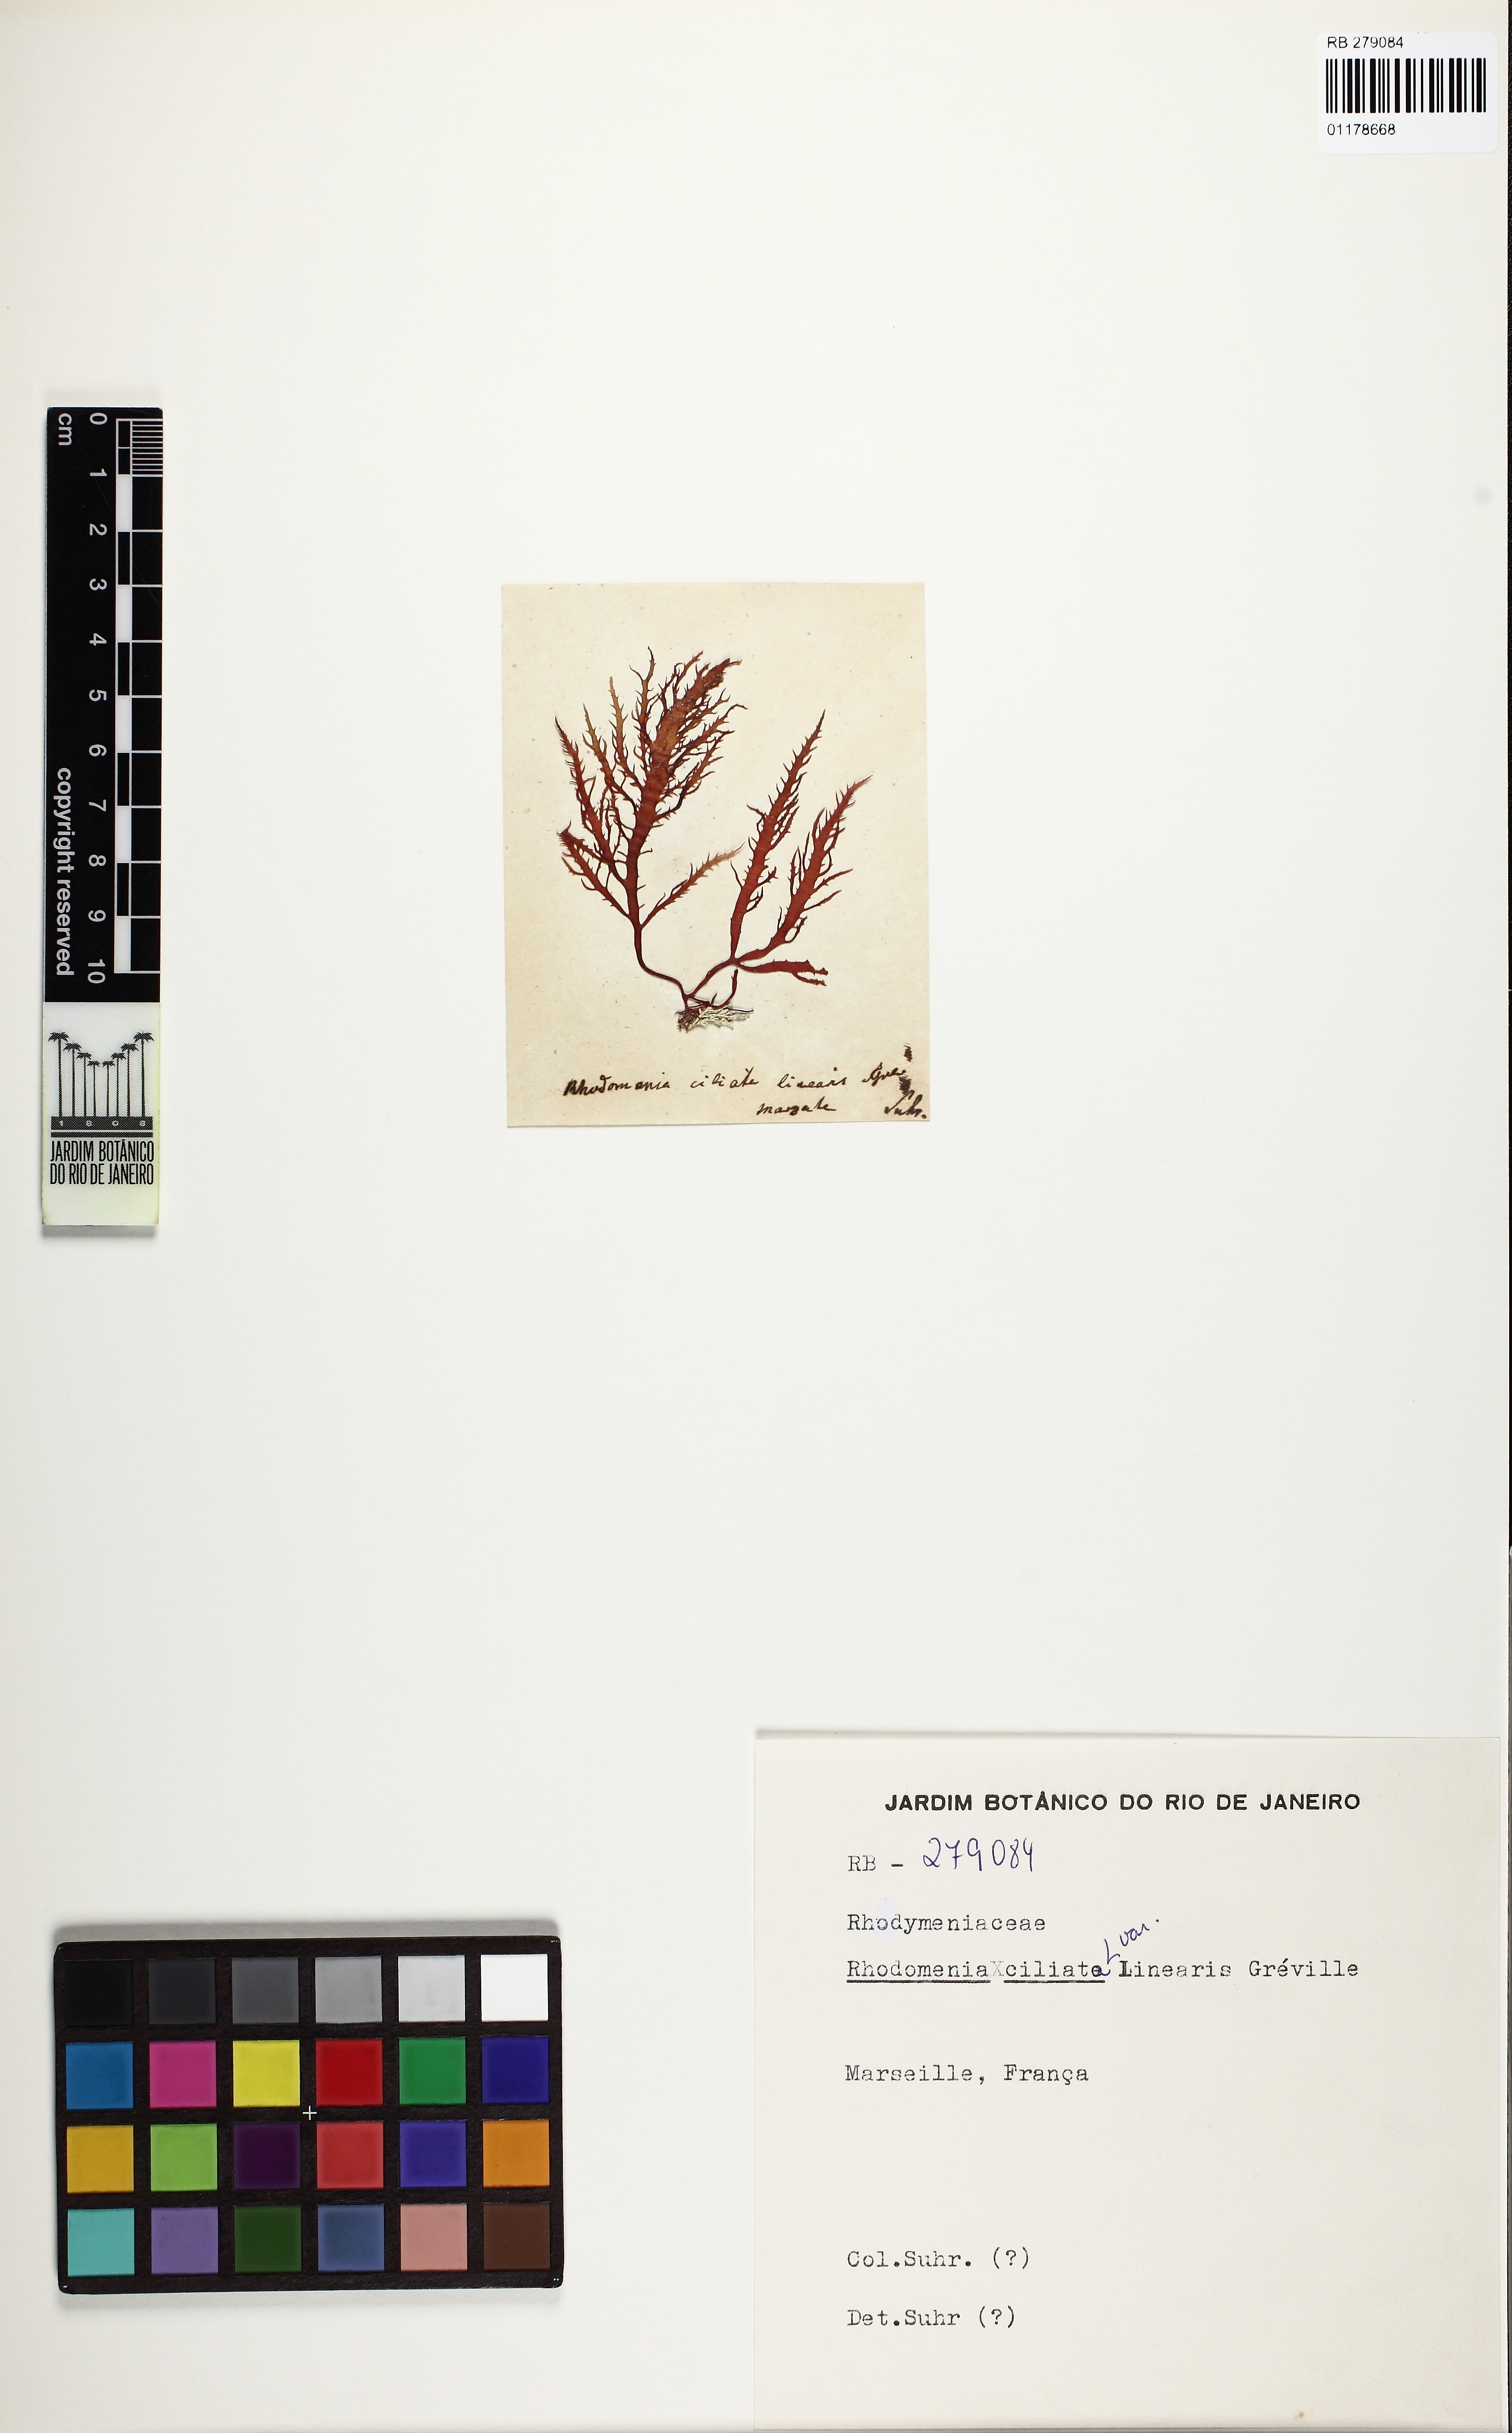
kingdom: Plantae
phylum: Rhodophyta
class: Florideophyceae
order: Gigartinales
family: Cystocloniaceae
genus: Calliblepharis
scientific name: Calliblepharis ciliata
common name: Eyelash weed
